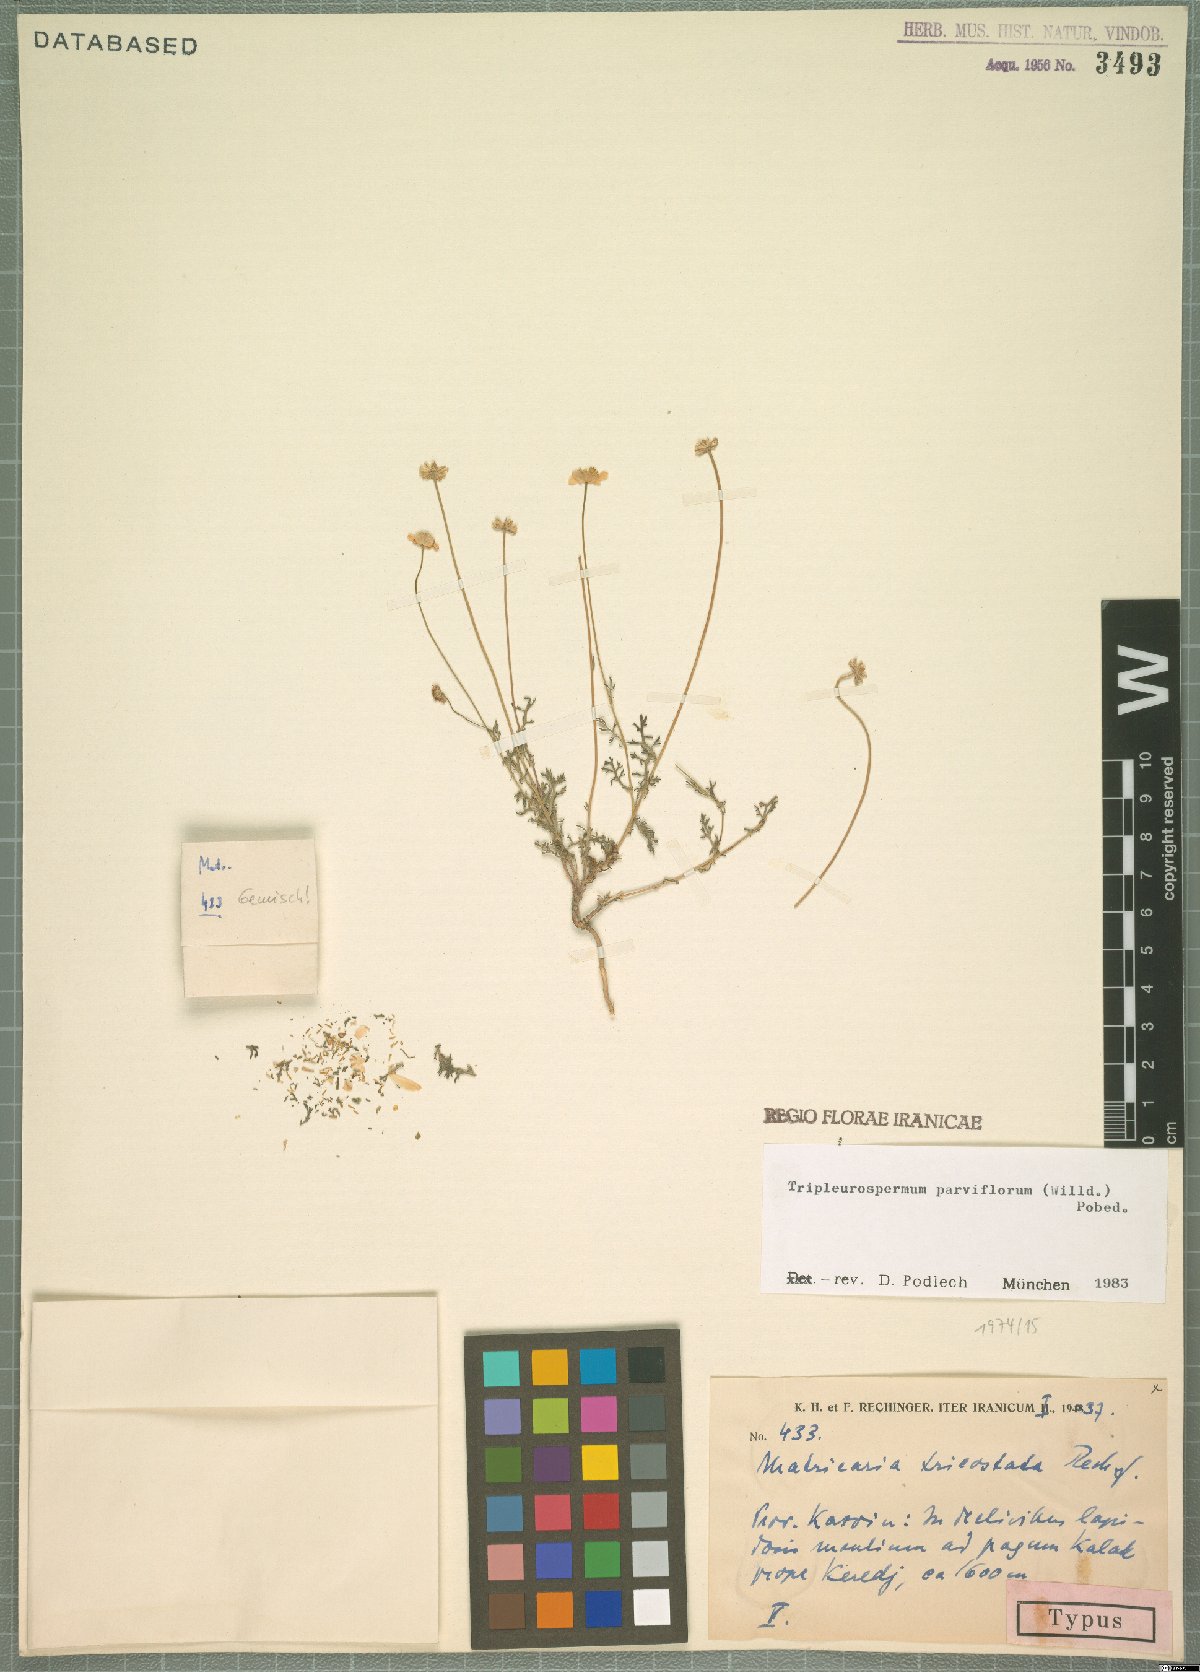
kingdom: Plantae
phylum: Tracheophyta
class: Magnoliopsida
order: Asterales
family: Asteraceae
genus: Tripleurospermum
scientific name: Tripleurospermum parviflorum
